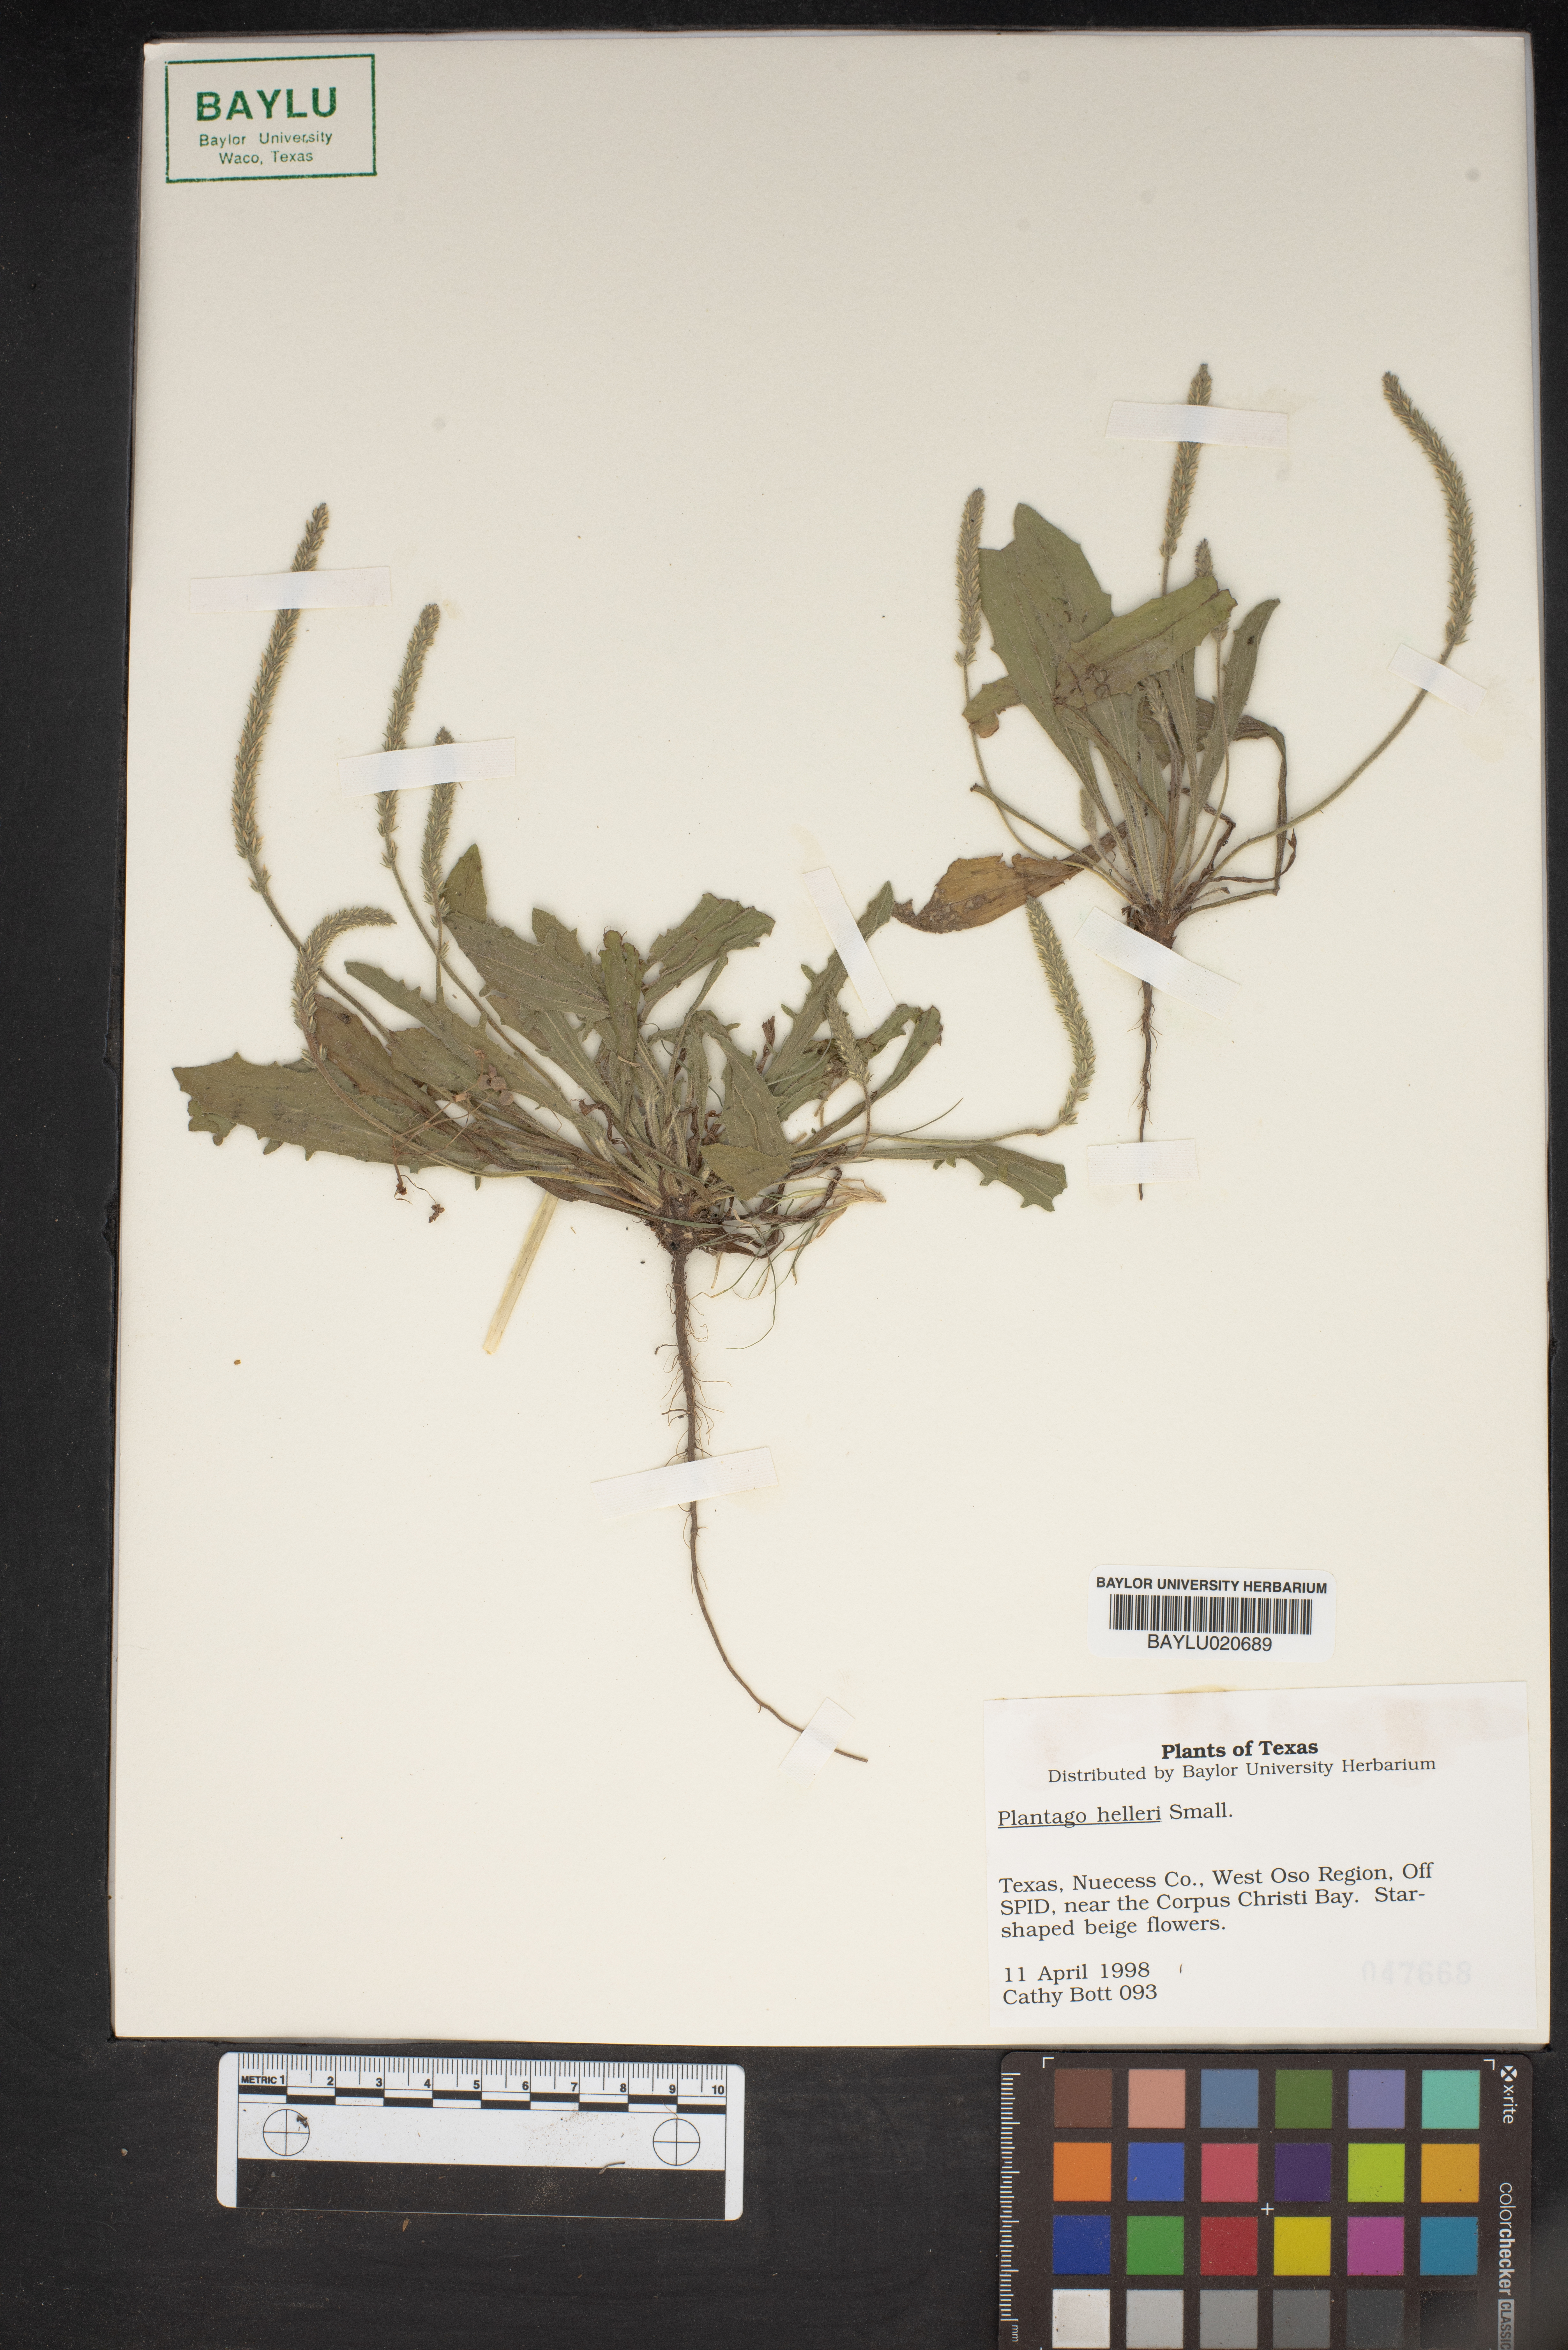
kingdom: Plantae
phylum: Tracheophyta
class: Magnoliopsida
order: Lamiales
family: Plantaginaceae
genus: Plantago
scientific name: Plantago helleri
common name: Heller's plantain
